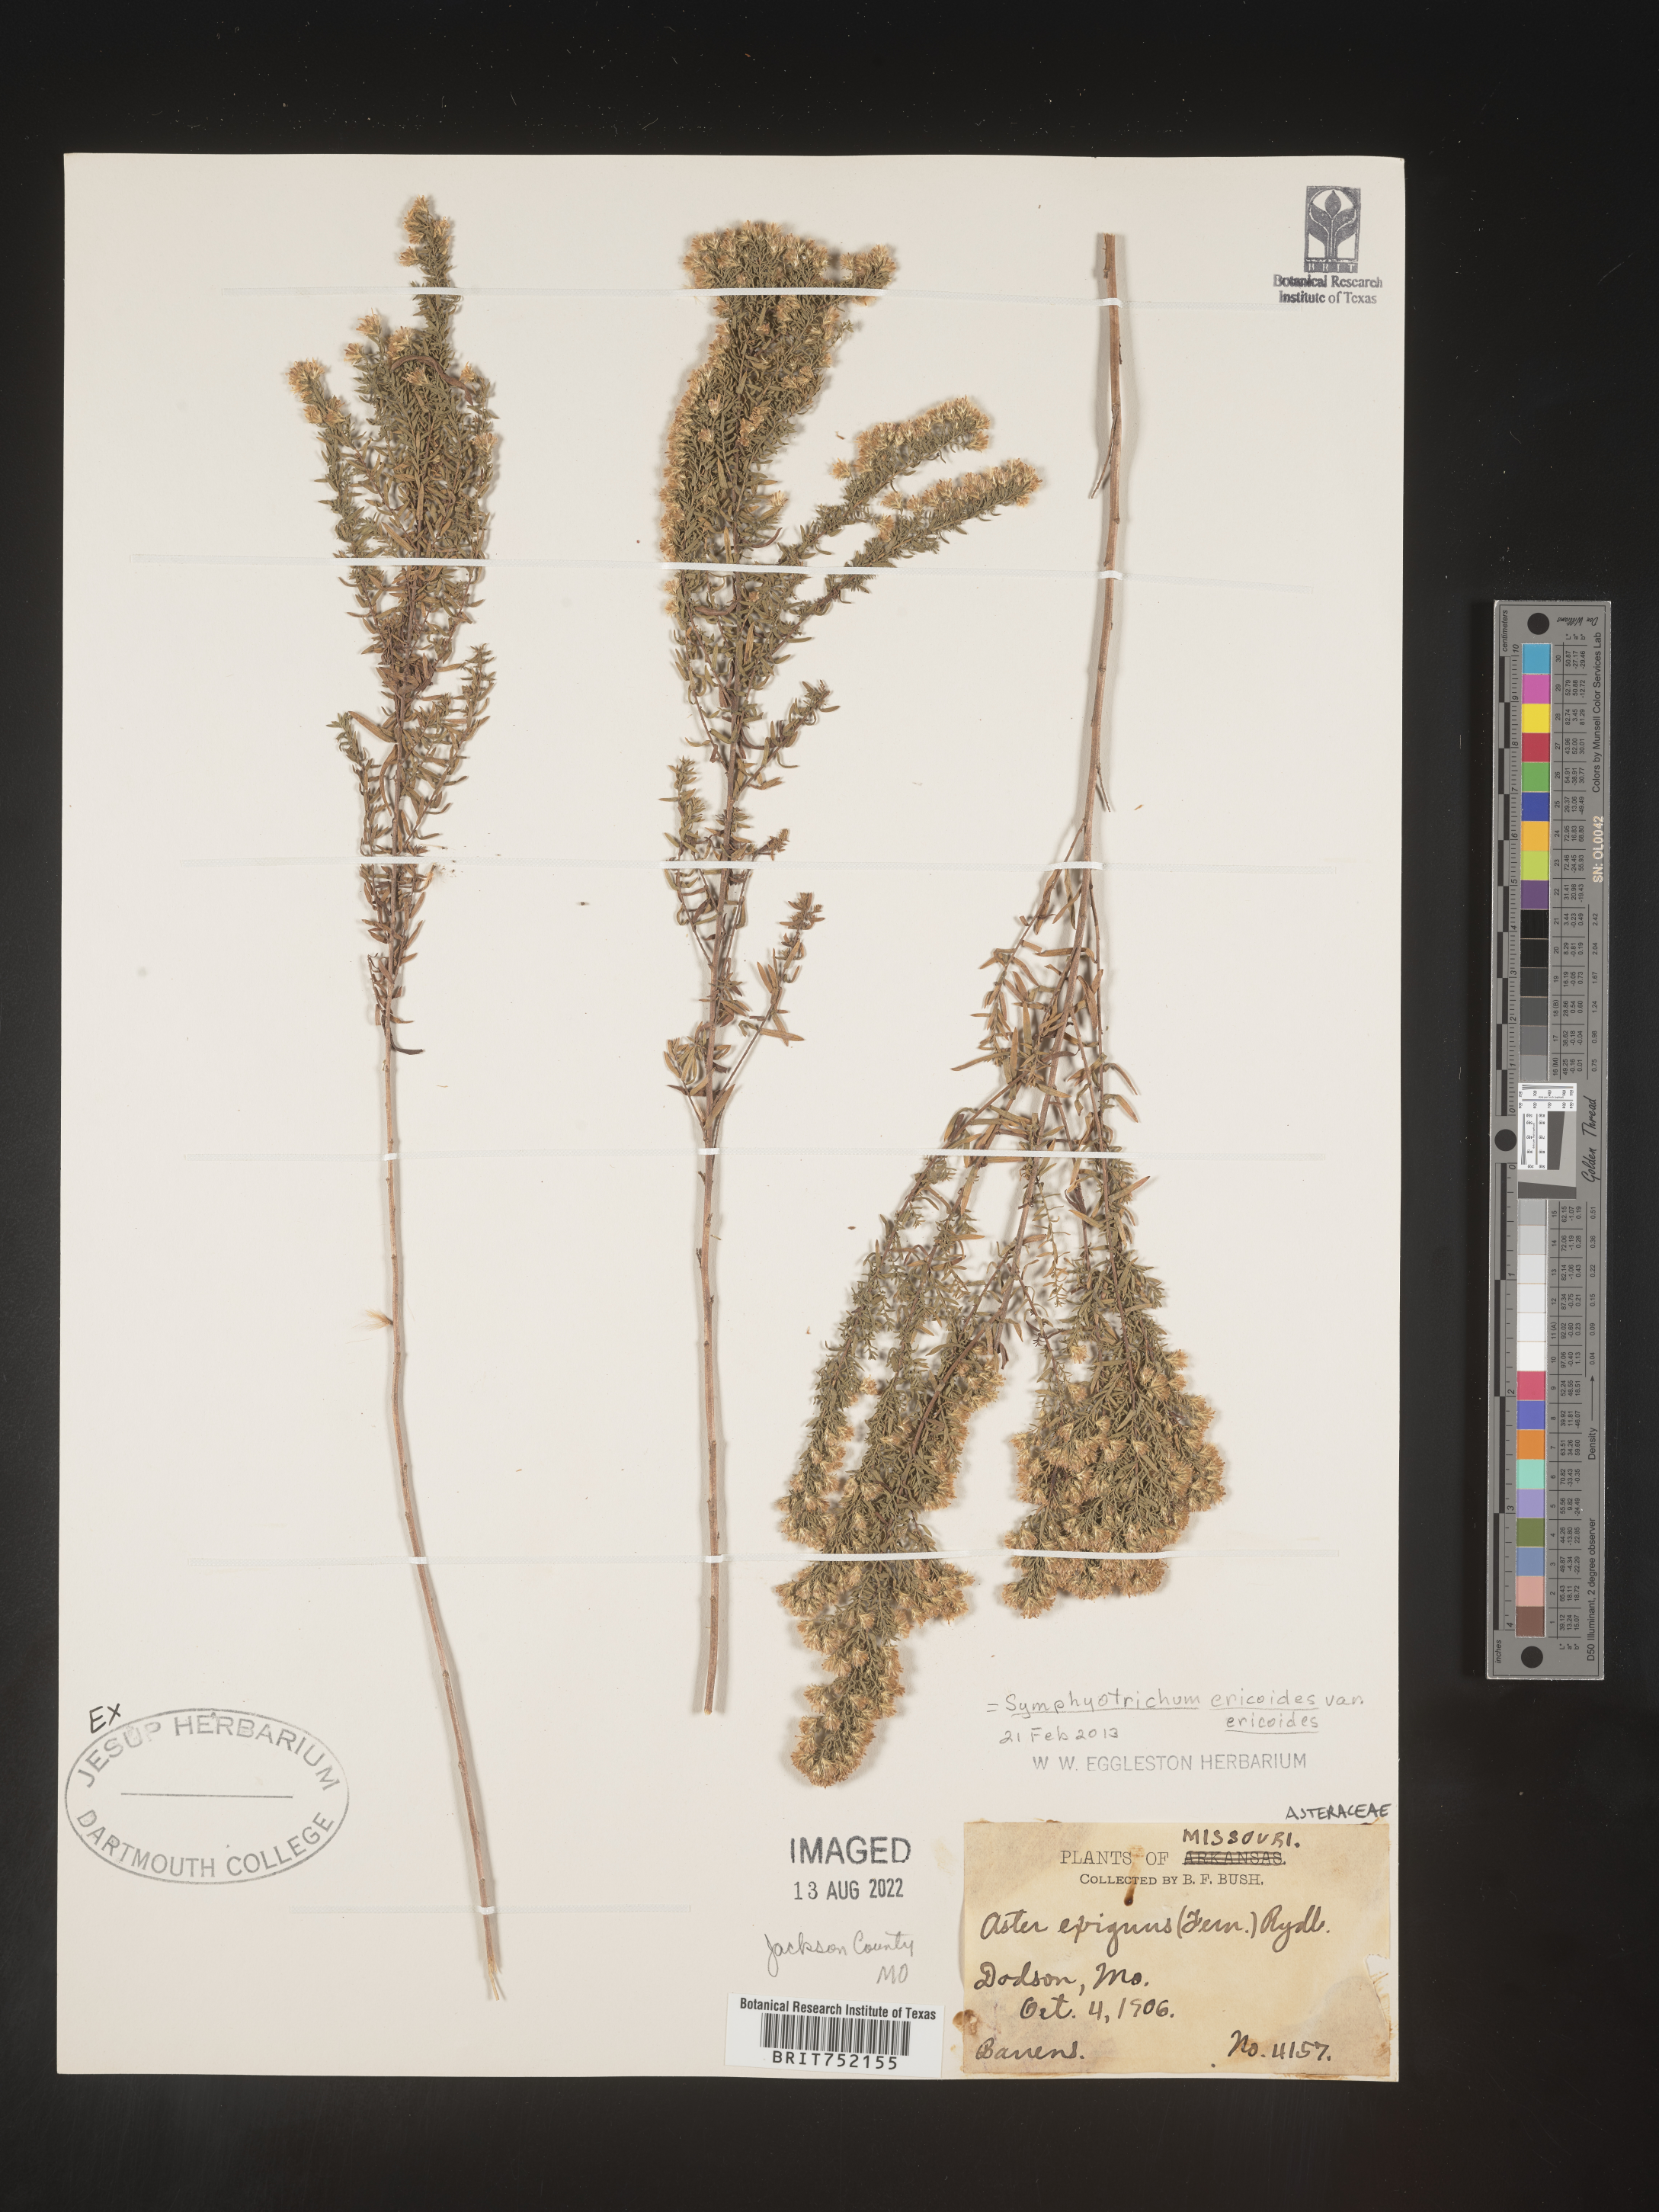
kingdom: Plantae
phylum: Tracheophyta
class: Magnoliopsida
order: Asterales
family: Asteraceae
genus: Symphyotrichum
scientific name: Symphyotrichum ericoides
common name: Heath aster
